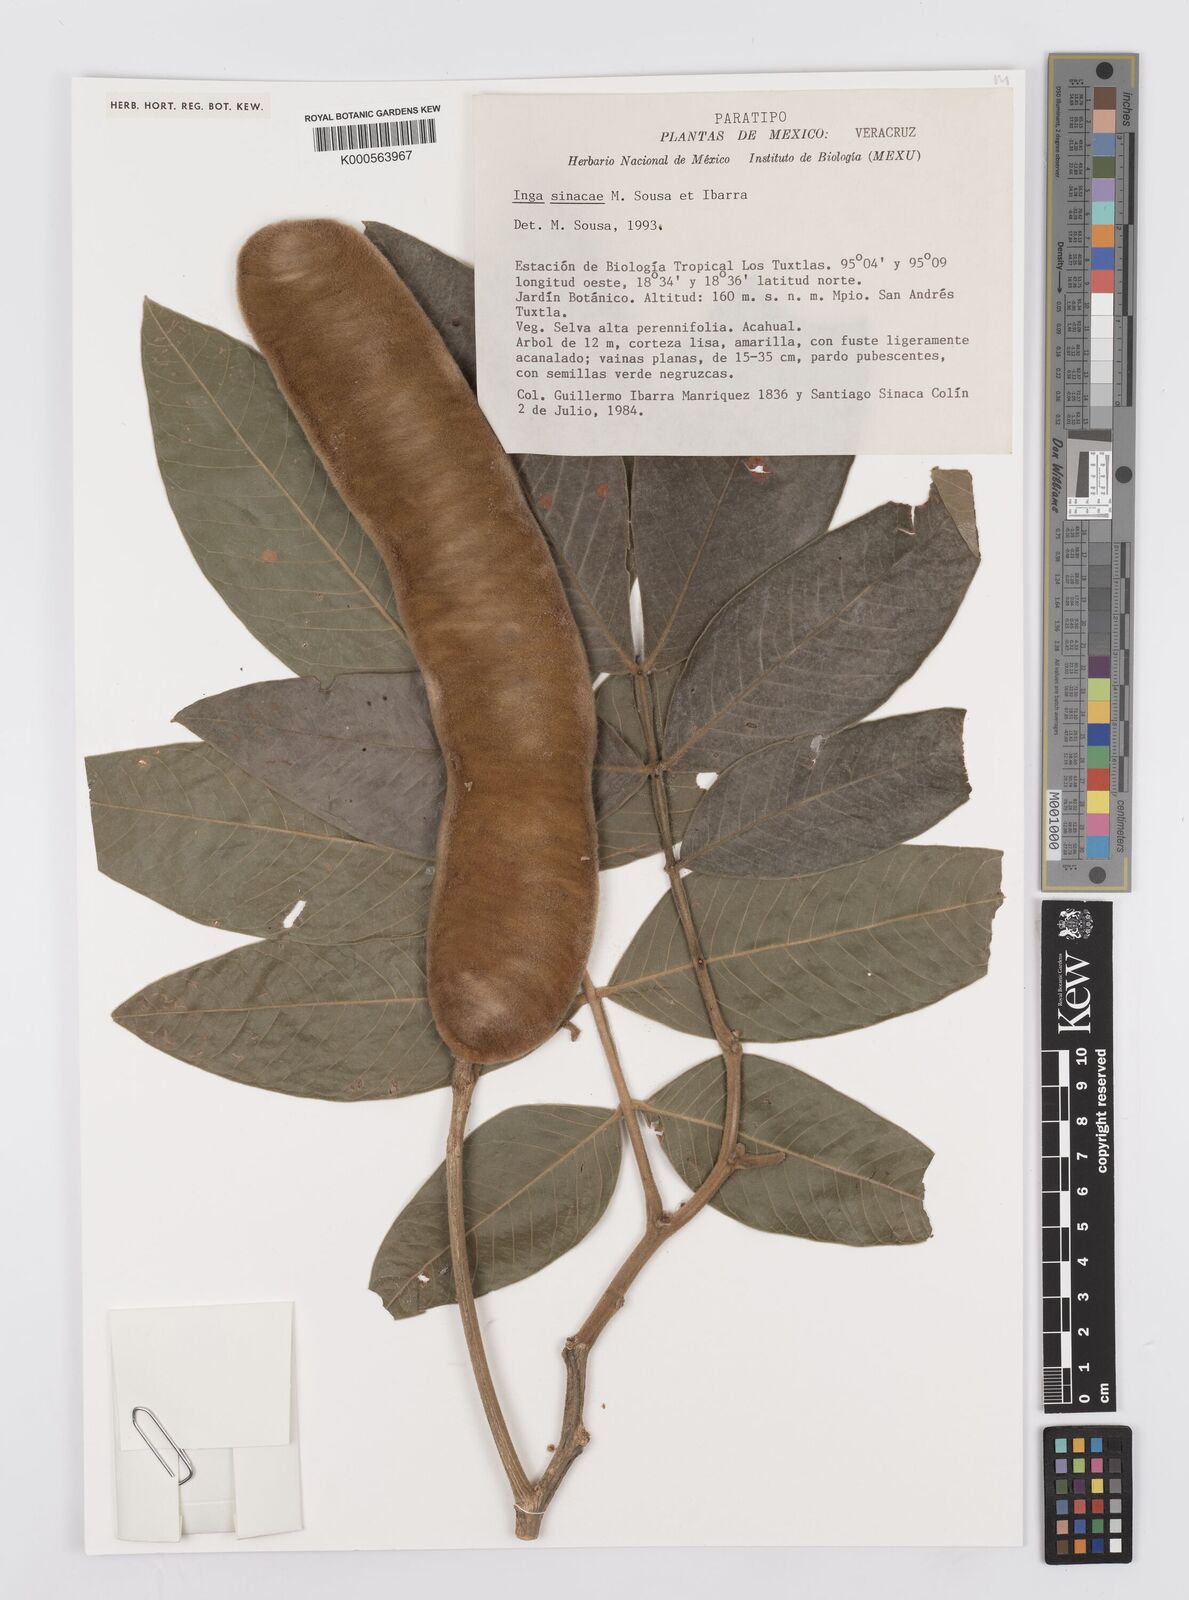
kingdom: Plantae
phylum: Tracheophyta
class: Magnoliopsida
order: Fabales
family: Fabaceae
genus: Inga
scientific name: Inga sinacae
